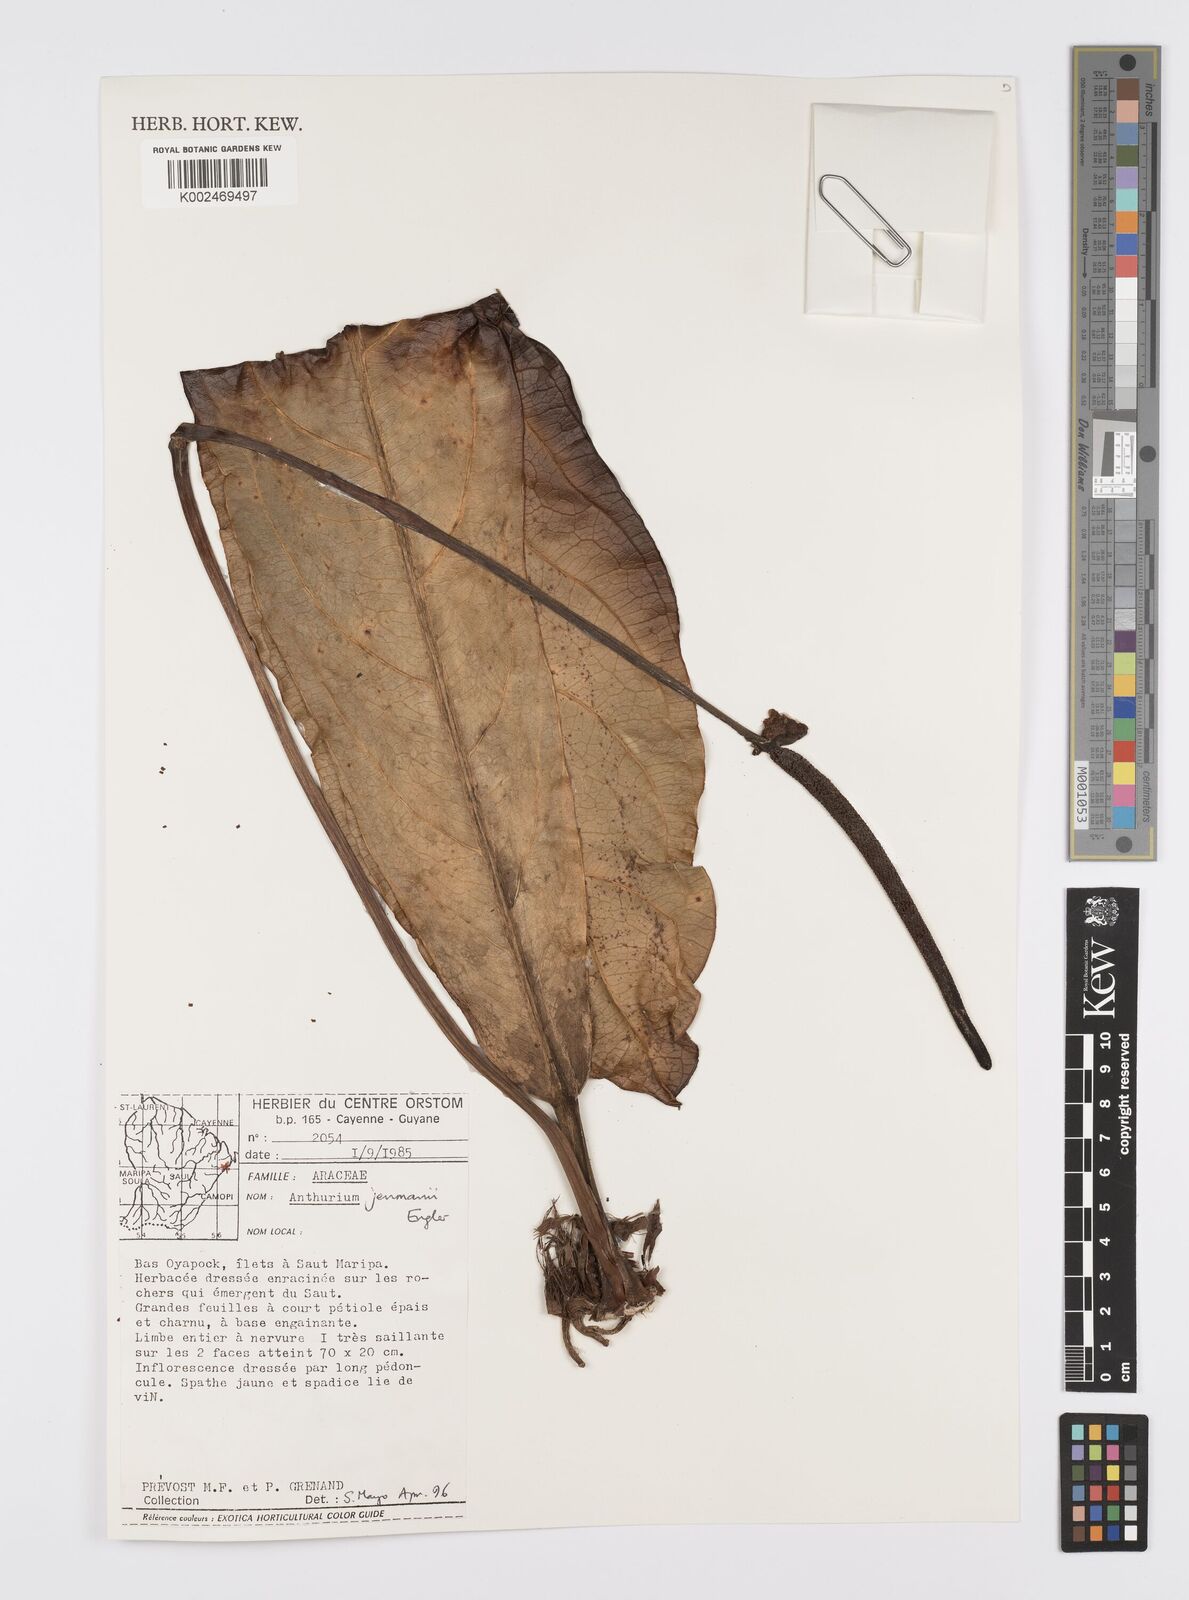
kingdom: Plantae
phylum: Tracheophyta
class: Liliopsida
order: Alismatales
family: Araceae
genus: Anthurium
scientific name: Anthurium jenmanii
